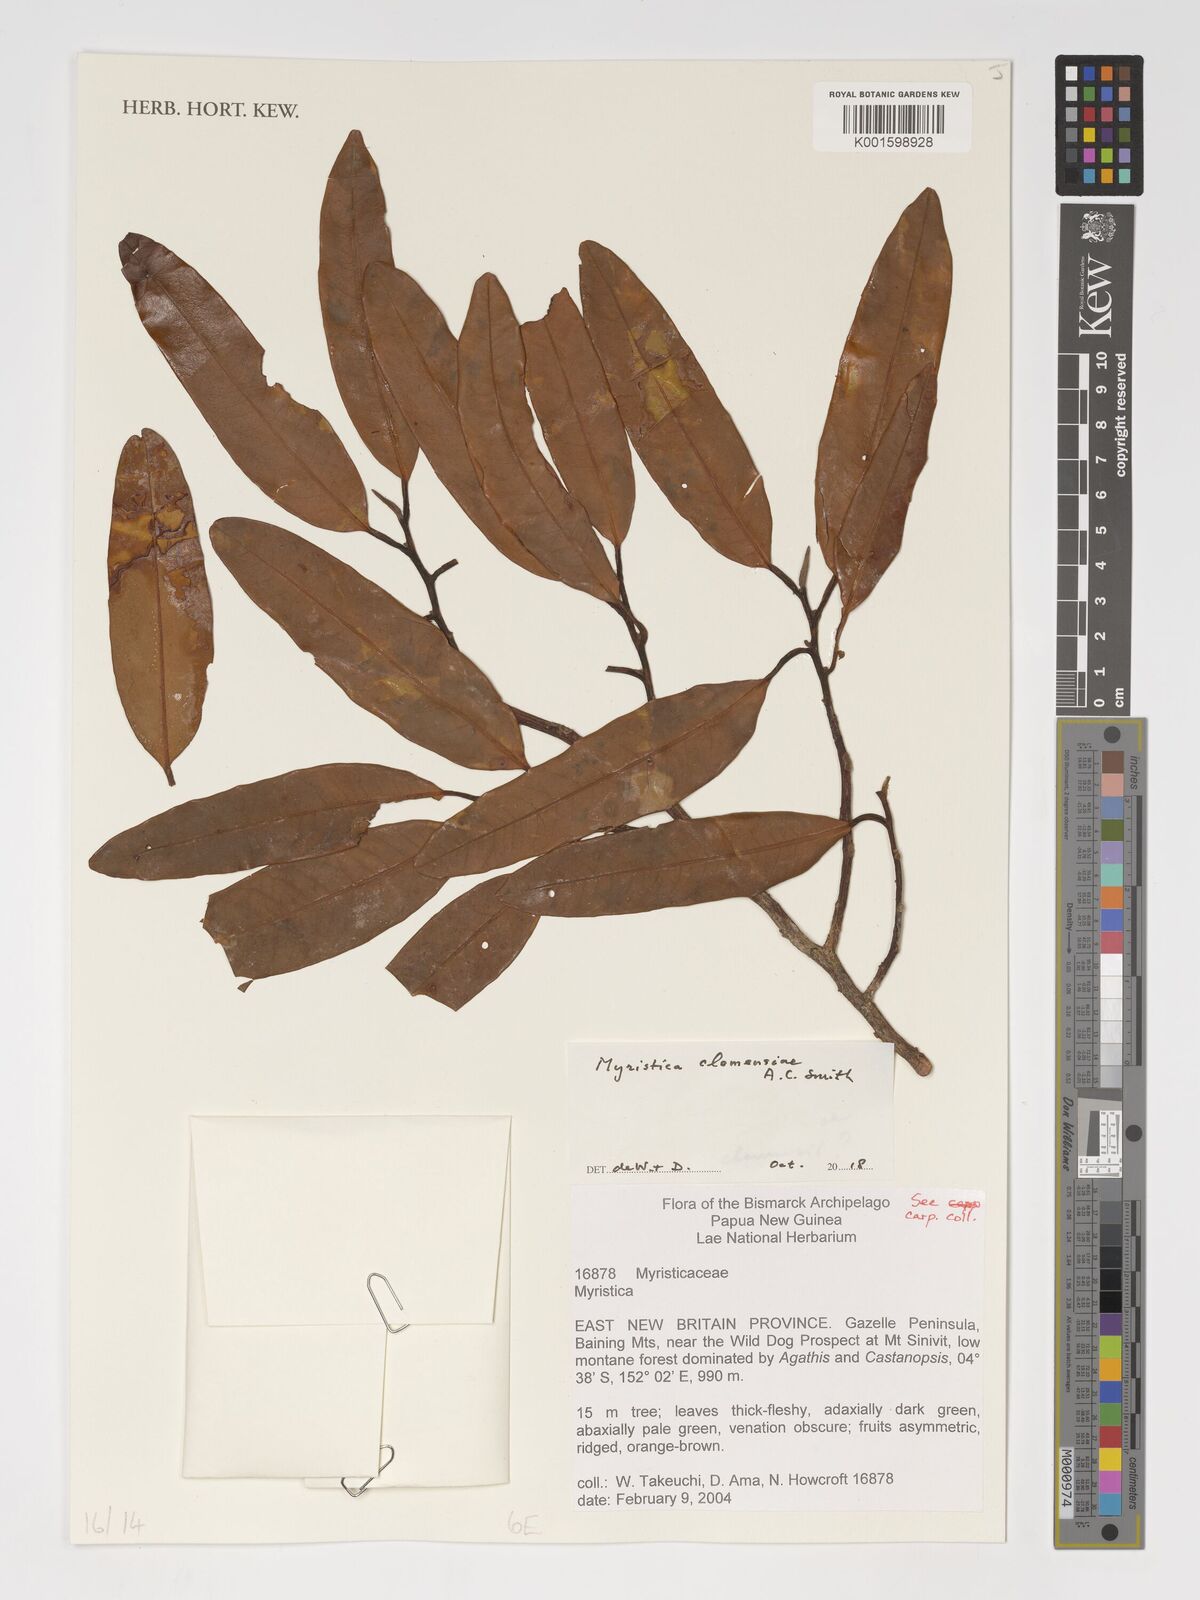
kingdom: Plantae
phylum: Tracheophyta
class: Magnoliopsida
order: Magnoliales
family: Myristicaceae
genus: Myristica
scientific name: Myristica
